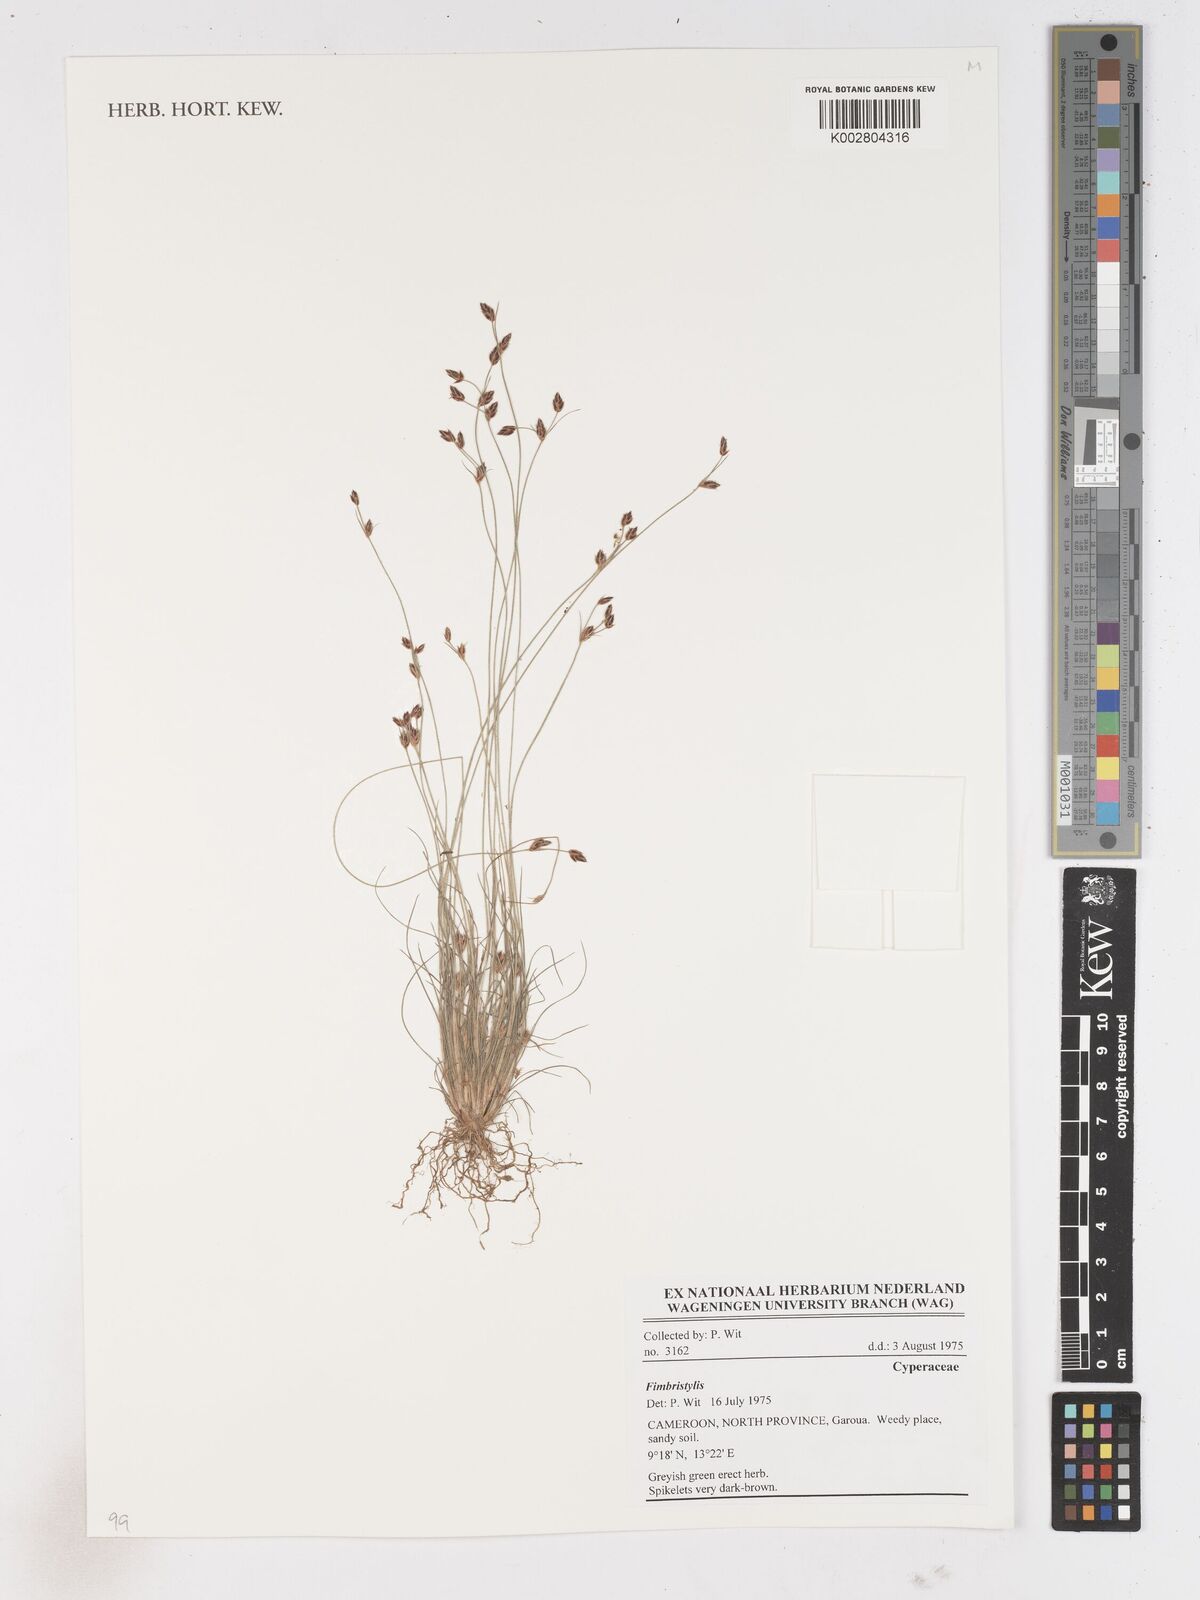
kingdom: Plantae
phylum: Tracheophyta
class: Liliopsida
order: Poales
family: Cyperaceae
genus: Fimbristylis
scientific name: Fimbristylis
